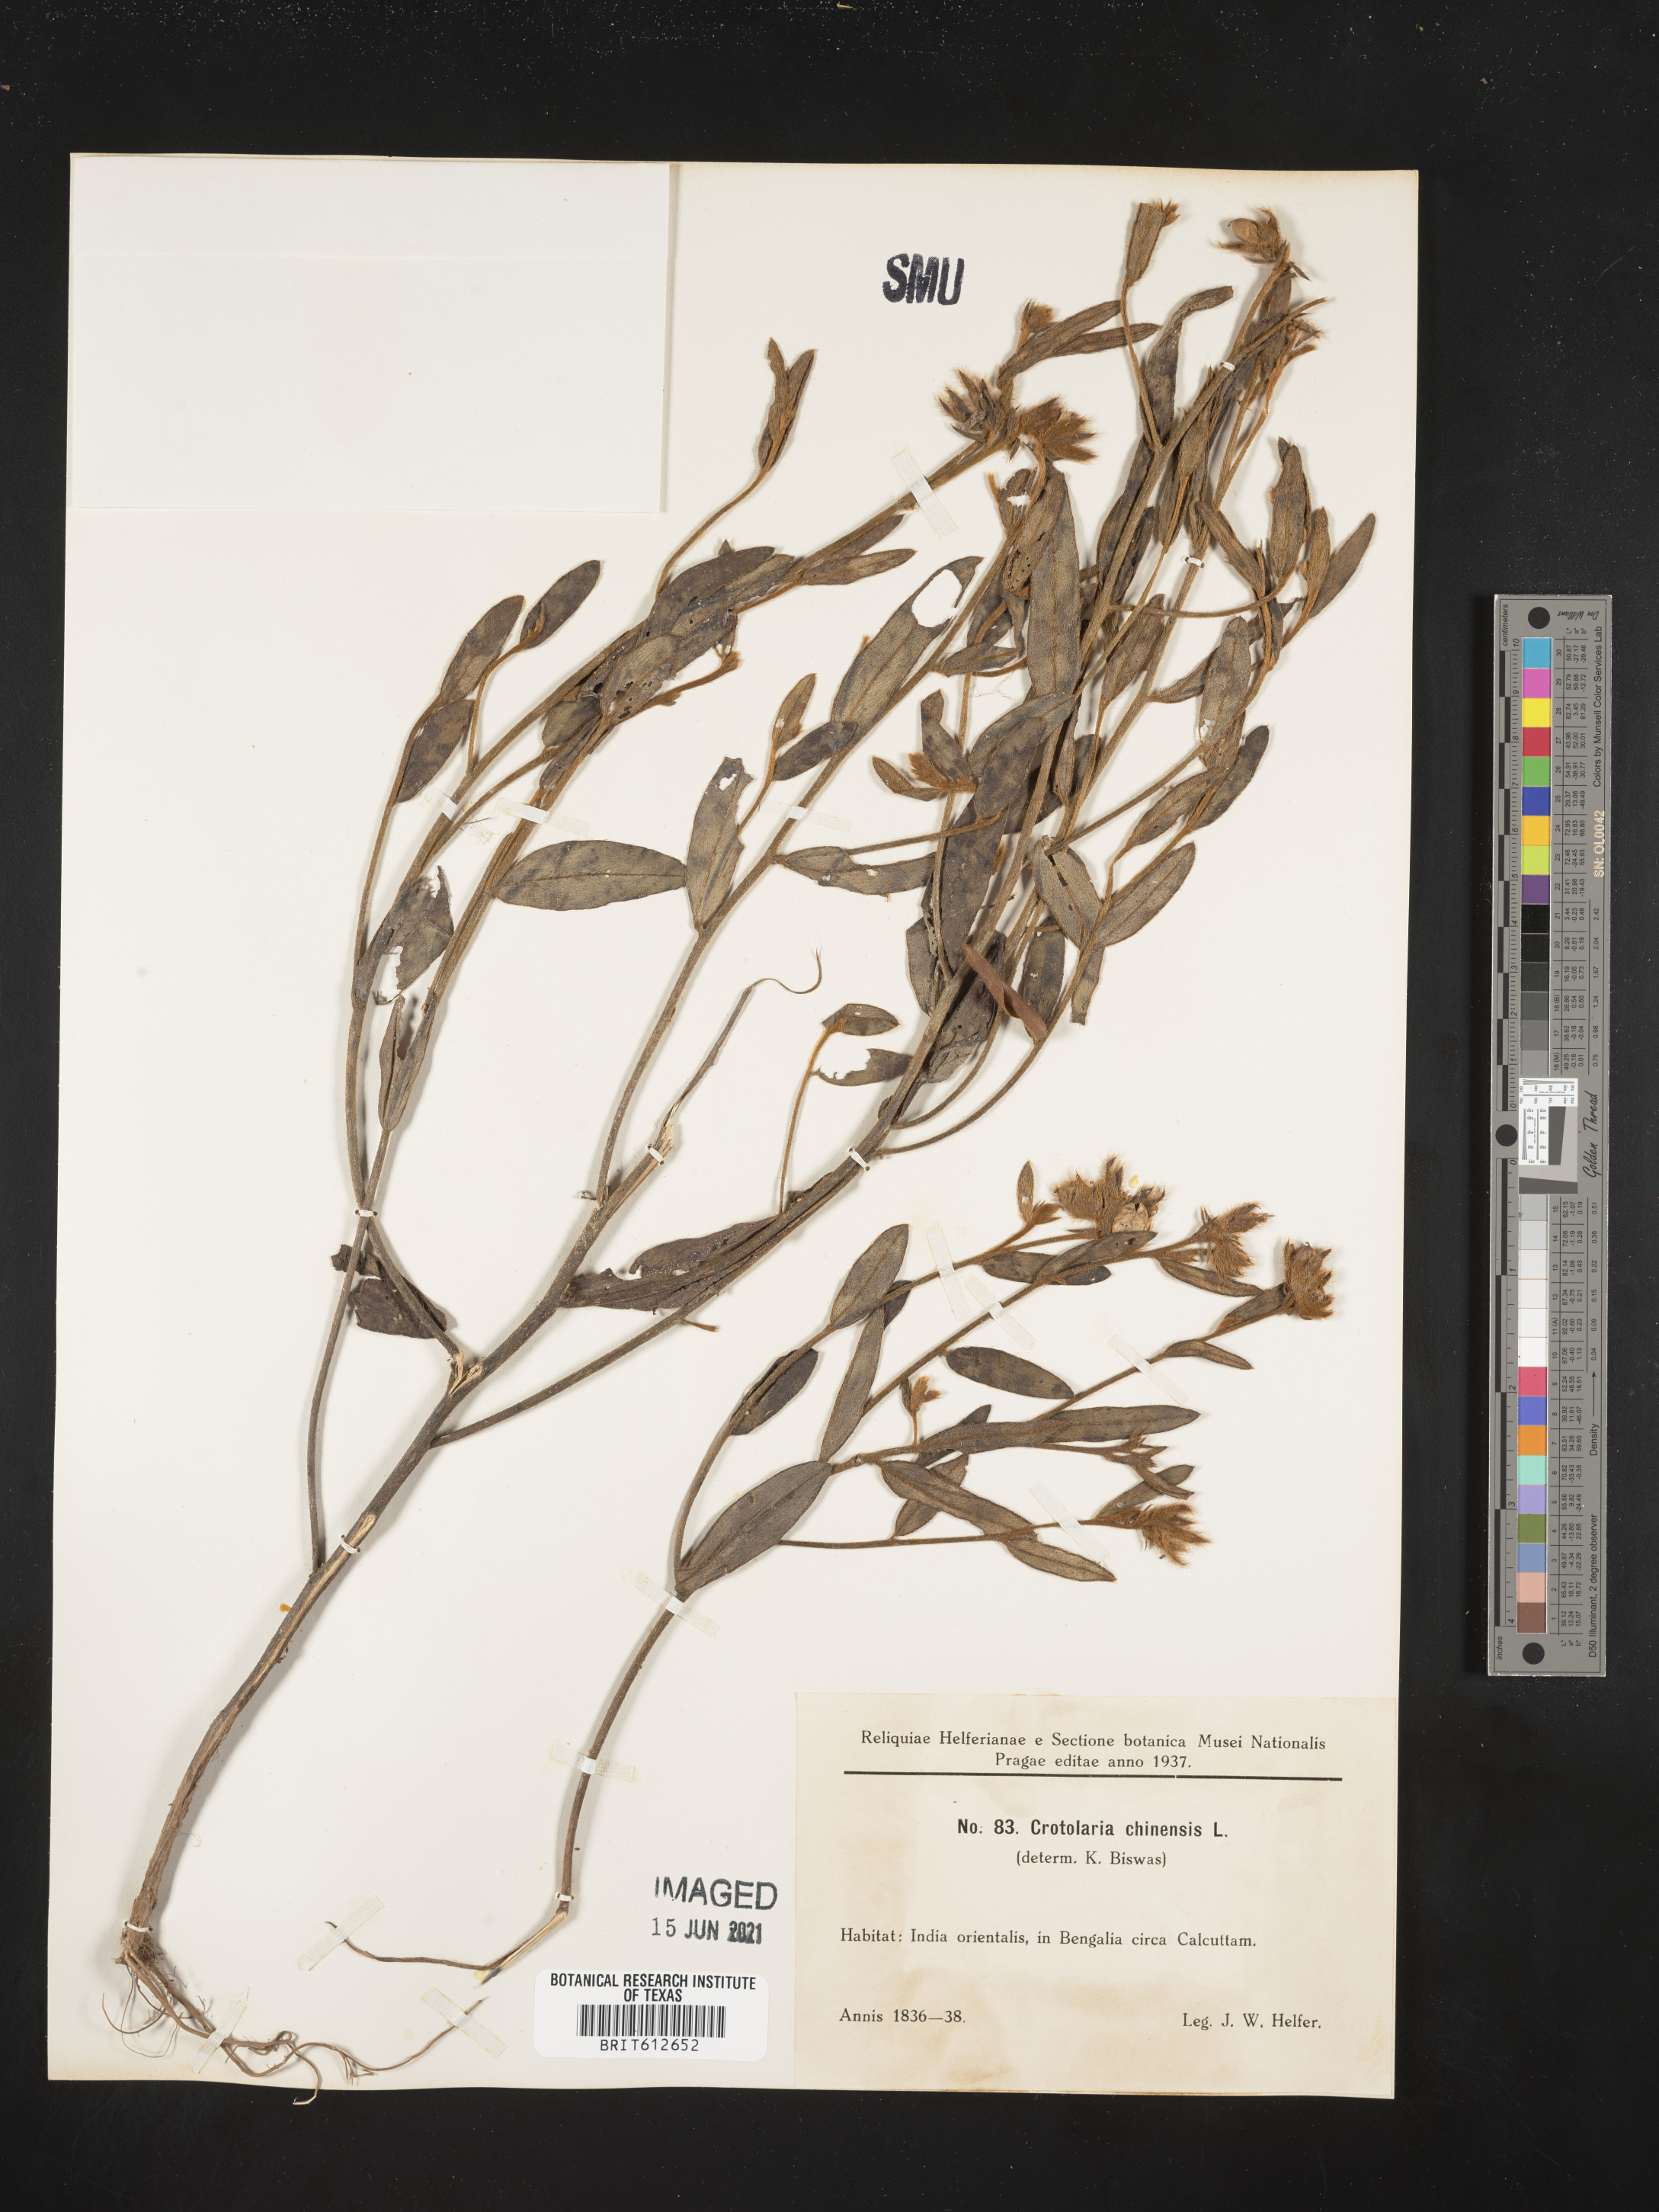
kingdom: Plantae
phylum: Tracheophyta
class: Magnoliopsida
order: Fabales
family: Fabaceae
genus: Crotalaria
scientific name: Crotalaria chinensis
